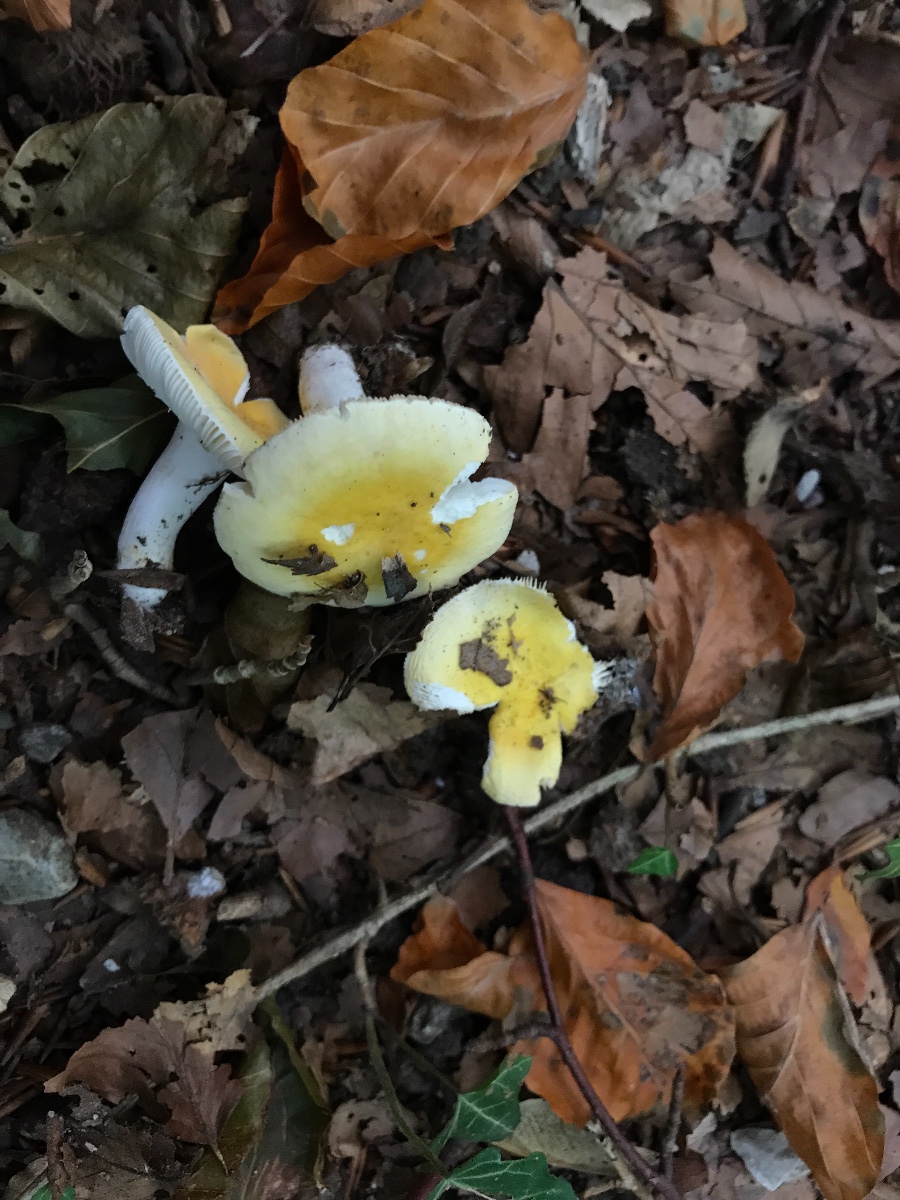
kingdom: Fungi
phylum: Basidiomycota
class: Agaricomycetes
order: Russulales
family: Russulaceae
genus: Russula
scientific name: Russula solaris
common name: sol-skørhat
